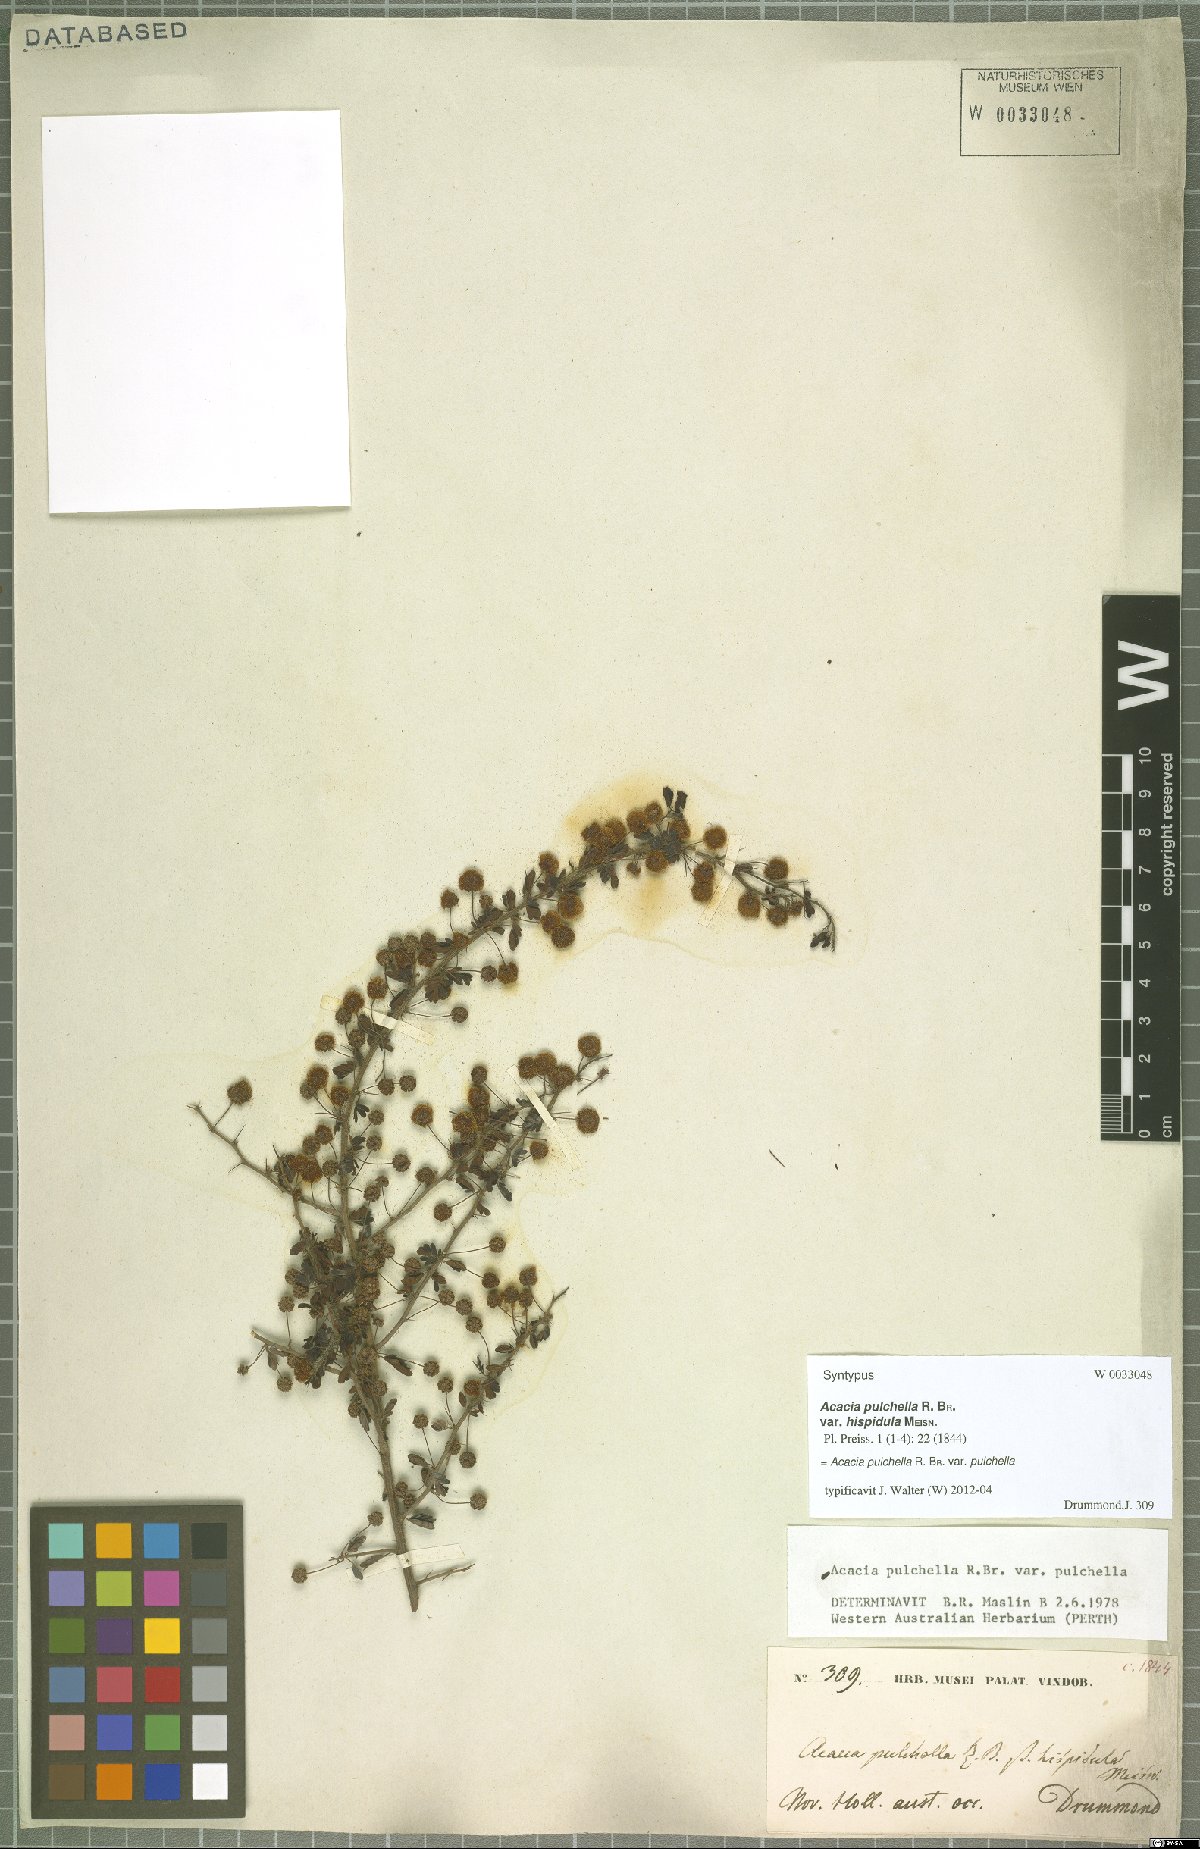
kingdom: Plantae
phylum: Tracheophyta
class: Magnoliopsida
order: Fabales
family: Fabaceae
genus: Acacia
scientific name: Acacia pulchella
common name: Prickly moses
